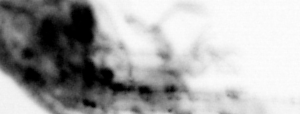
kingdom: Animalia
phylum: Chordata
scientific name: Chordata
